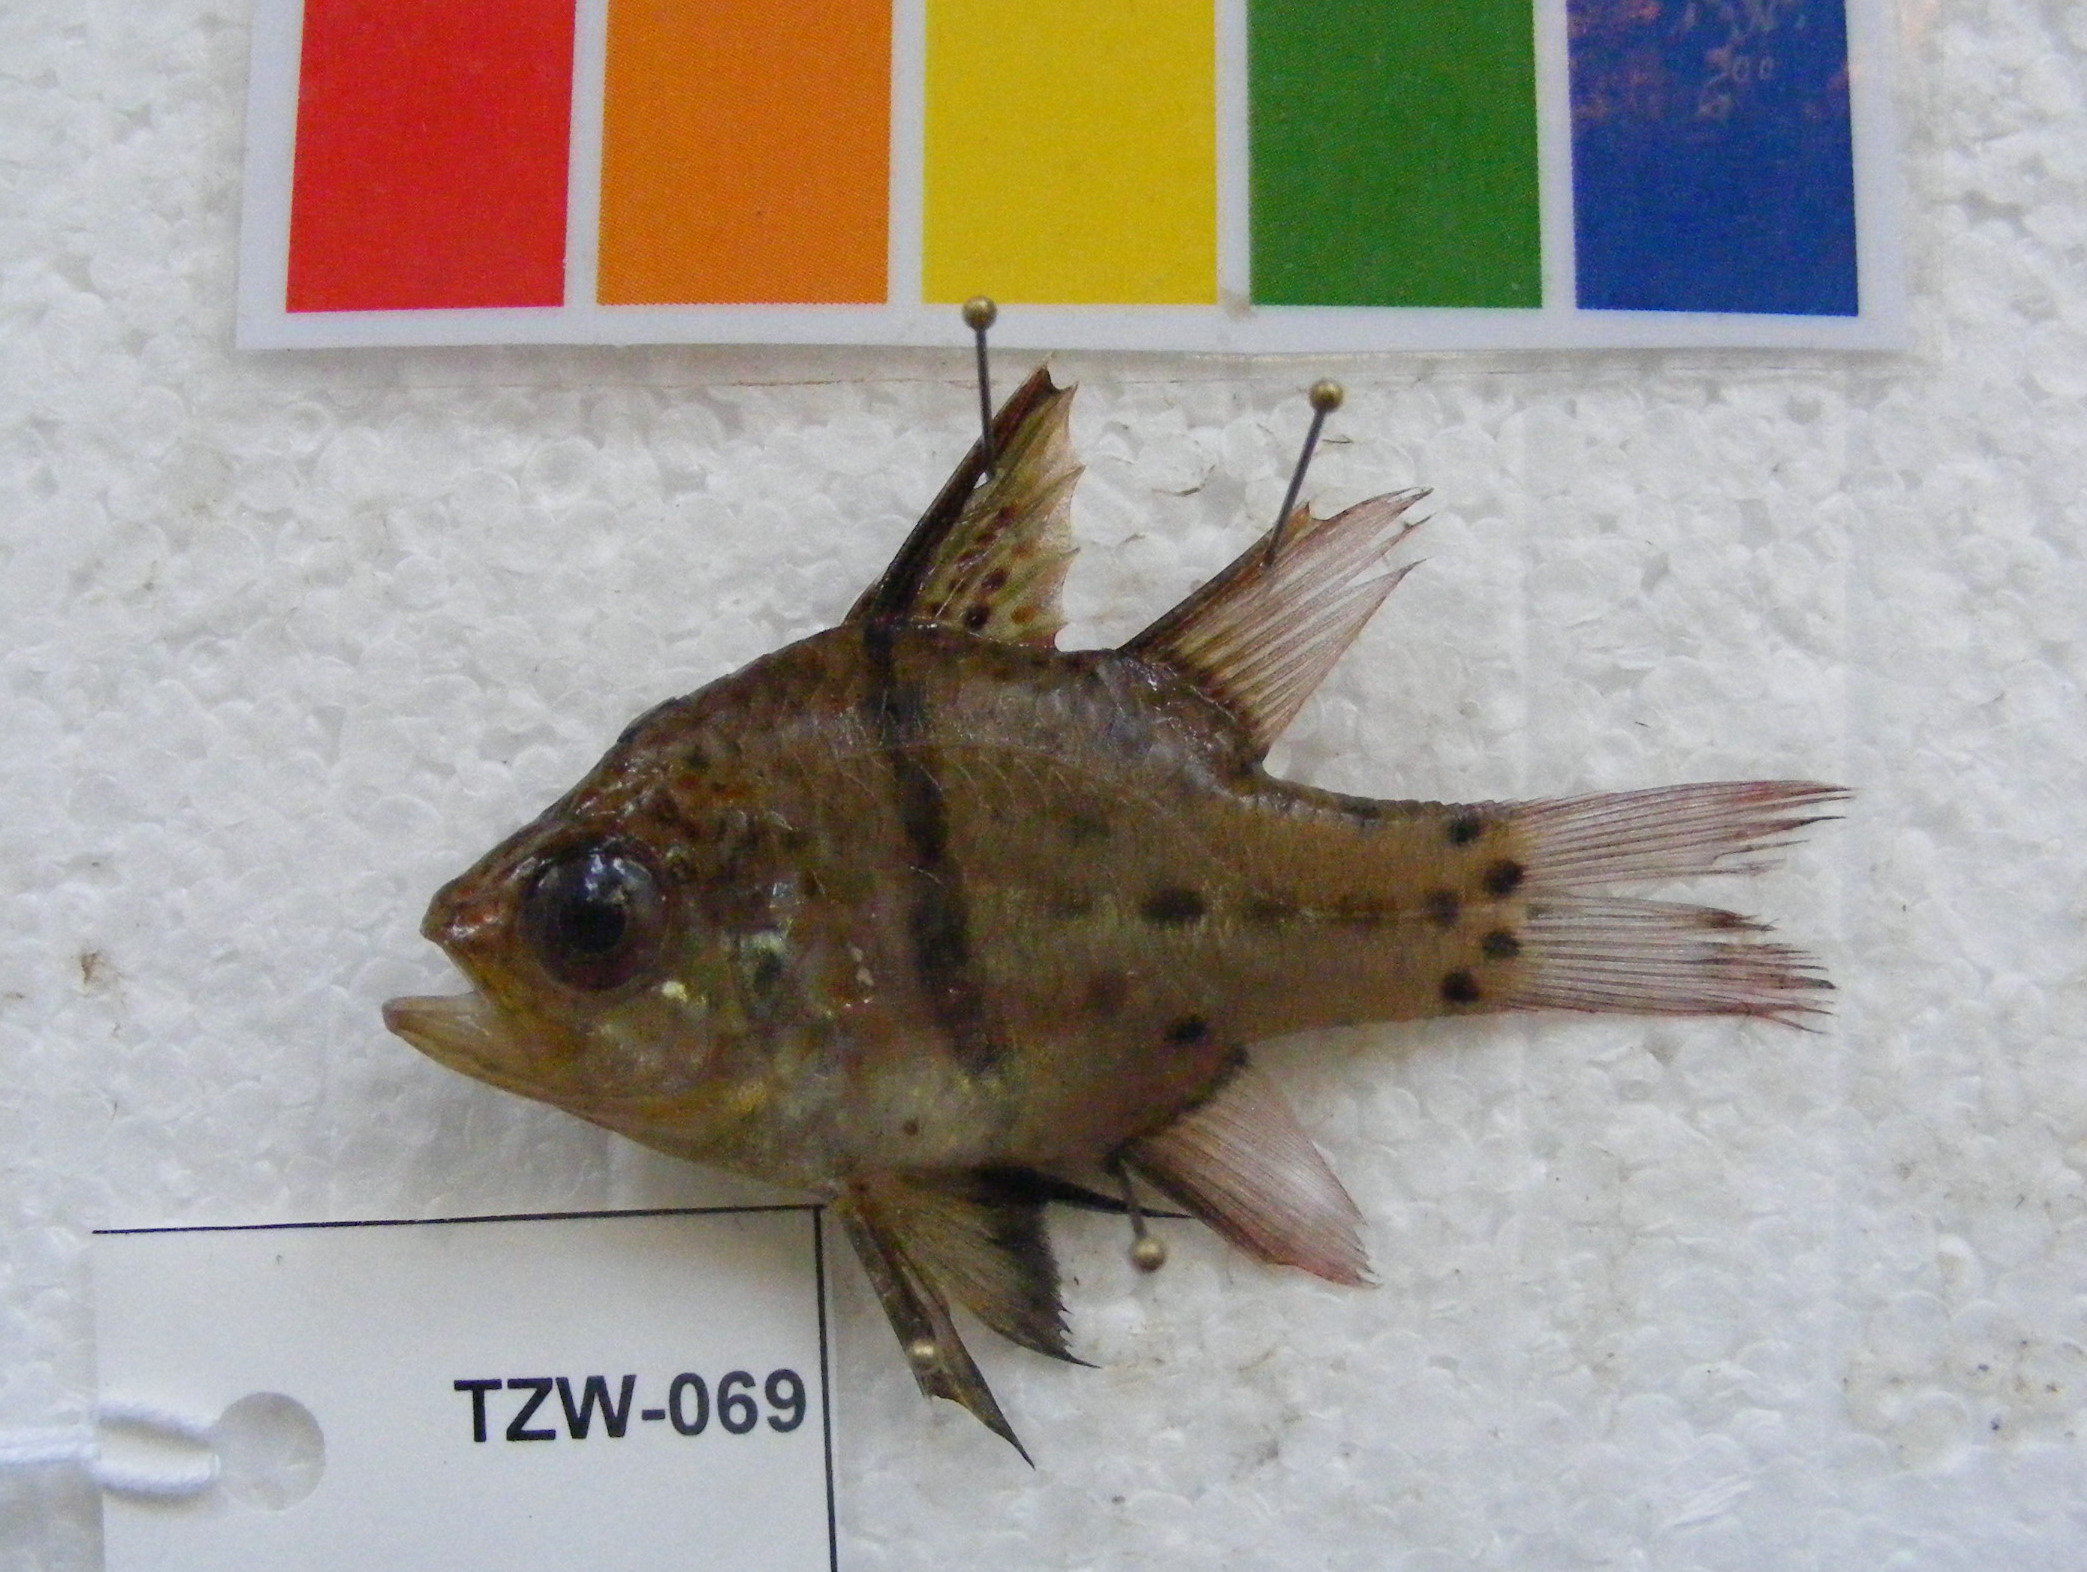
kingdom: Animalia
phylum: Chordata
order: Perciformes
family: Apogonidae
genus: Sphaeramia
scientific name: Sphaeramia orbicularis
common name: Polka-dot cardinalfish
